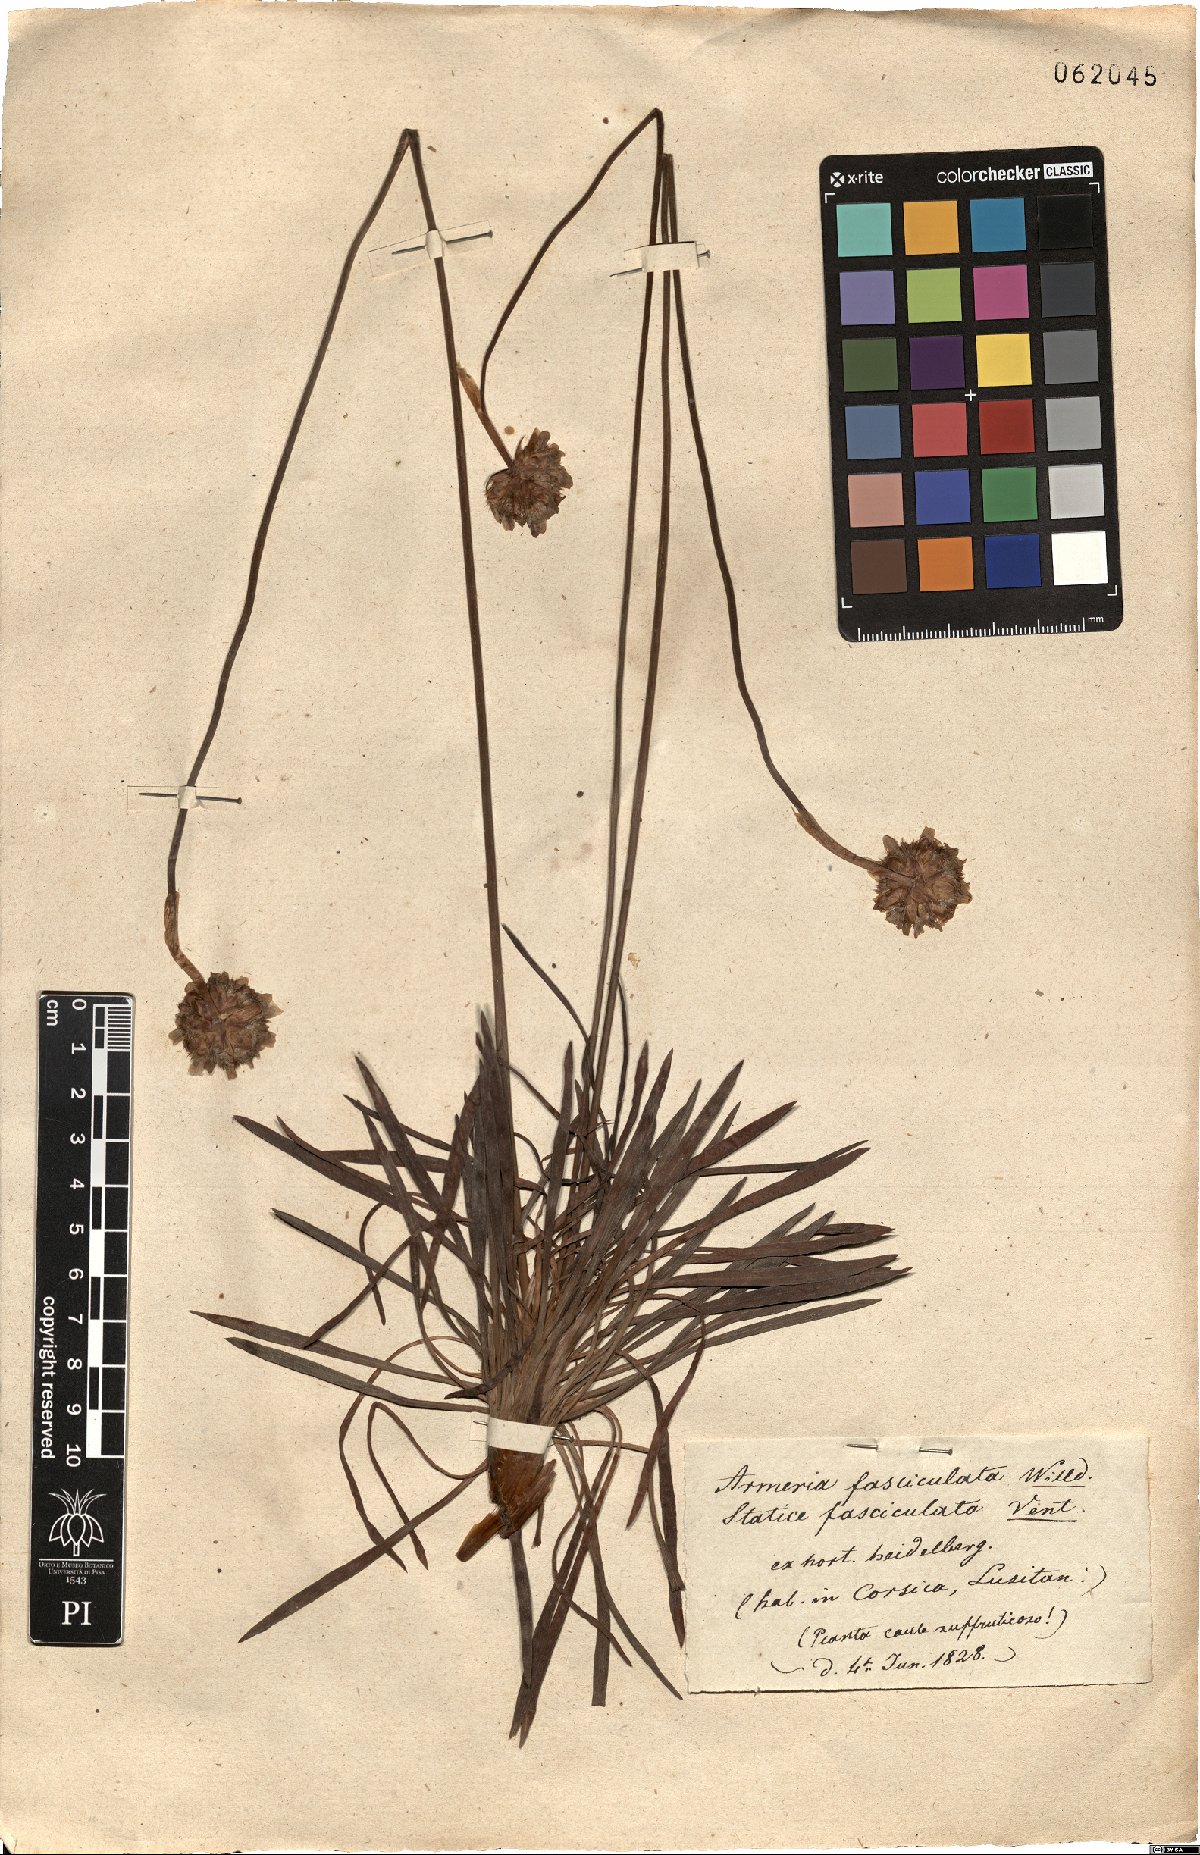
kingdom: Plantae
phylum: Tracheophyta
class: Magnoliopsida
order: Caryophyllales
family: Plumbaginaceae
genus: Armeria
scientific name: Armeria pungens
